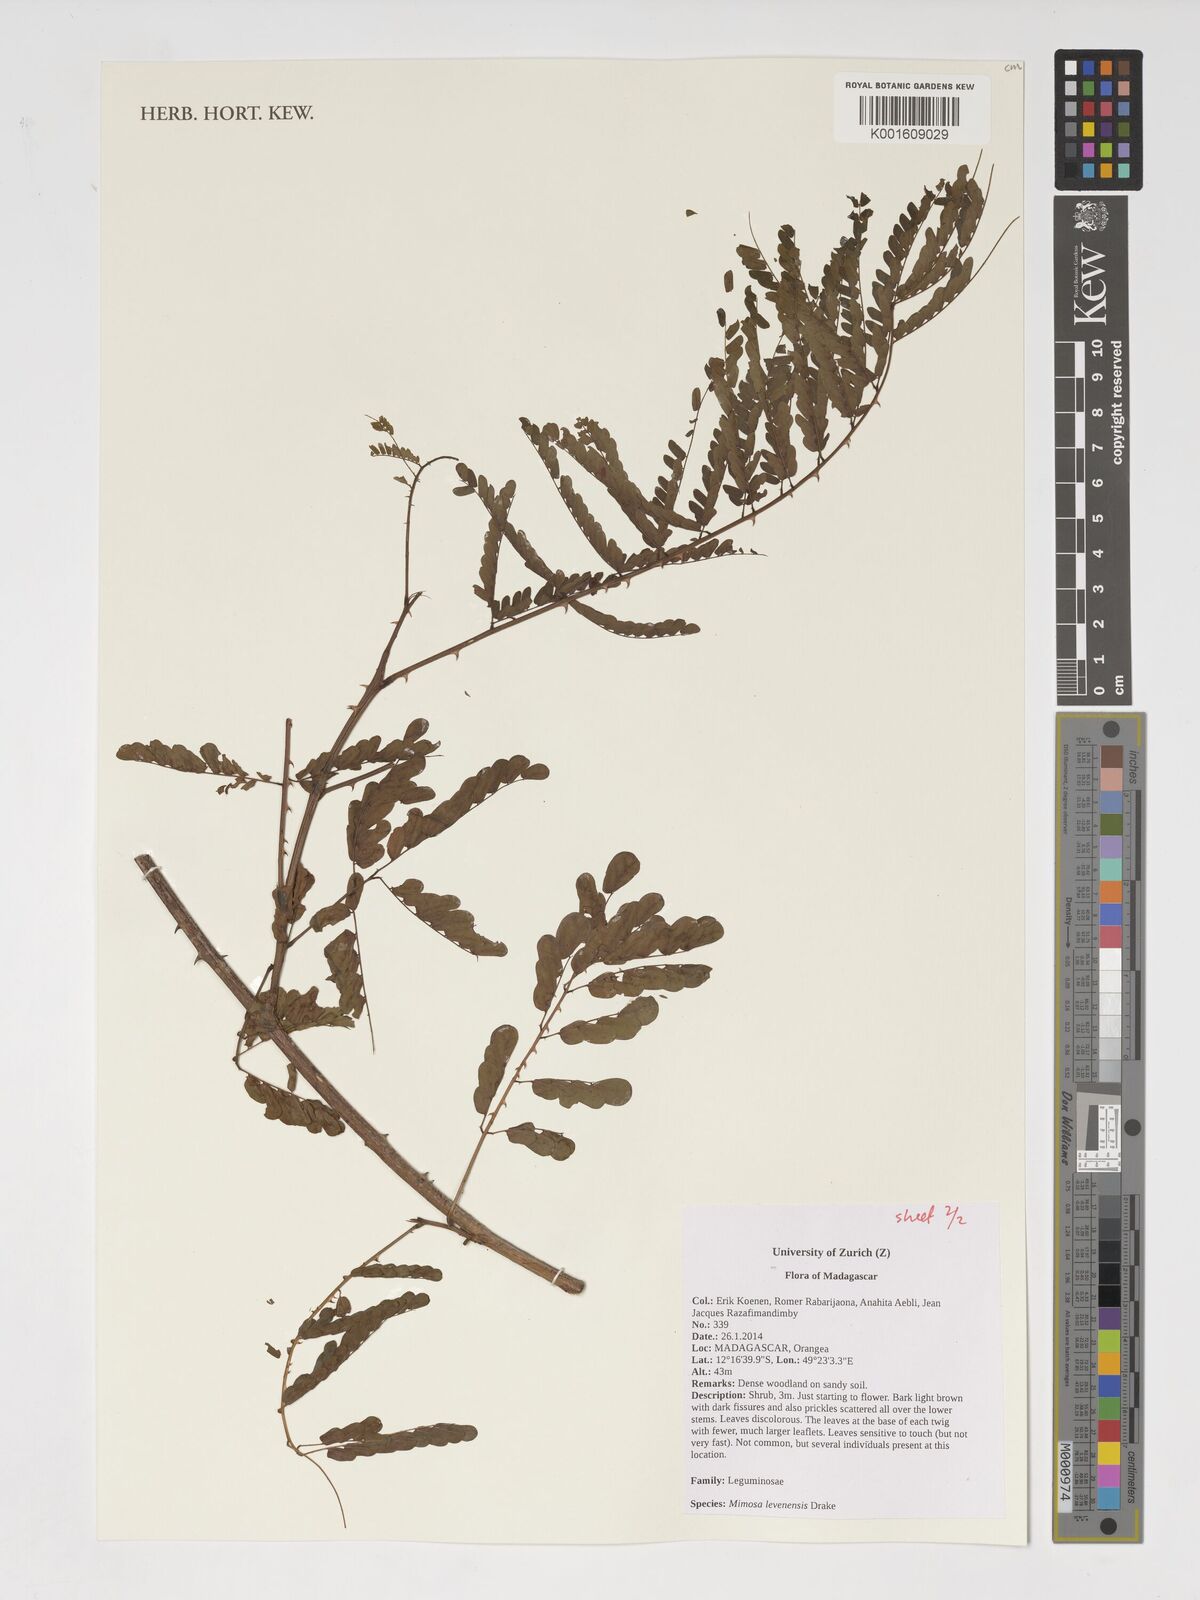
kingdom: Plantae
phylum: Tracheophyta
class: Magnoliopsida
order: Fabales
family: Fabaceae
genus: Mimosa
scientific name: Mimosa levenensis
